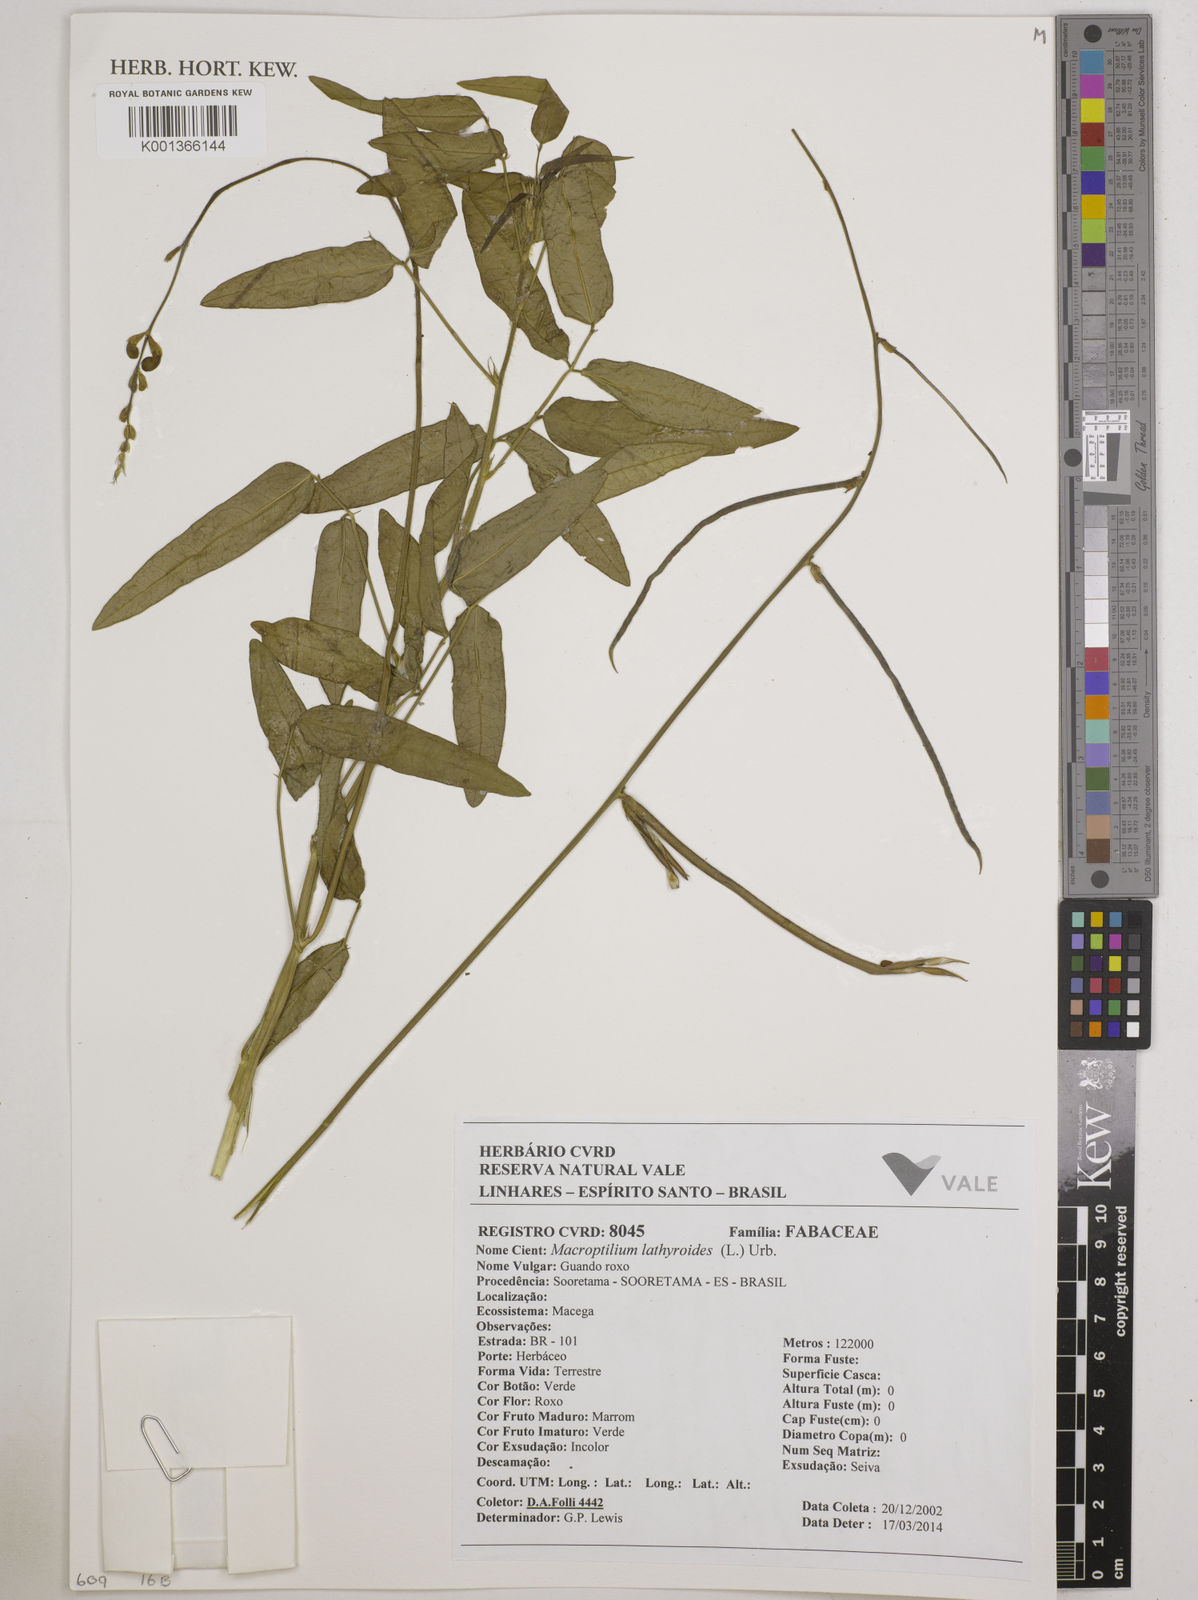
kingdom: Plantae
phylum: Tracheophyta
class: Magnoliopsida
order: Fabales
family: Fabaceae
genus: Macroptilium
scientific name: Macroptilium lathyroides
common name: Wild bushbean
